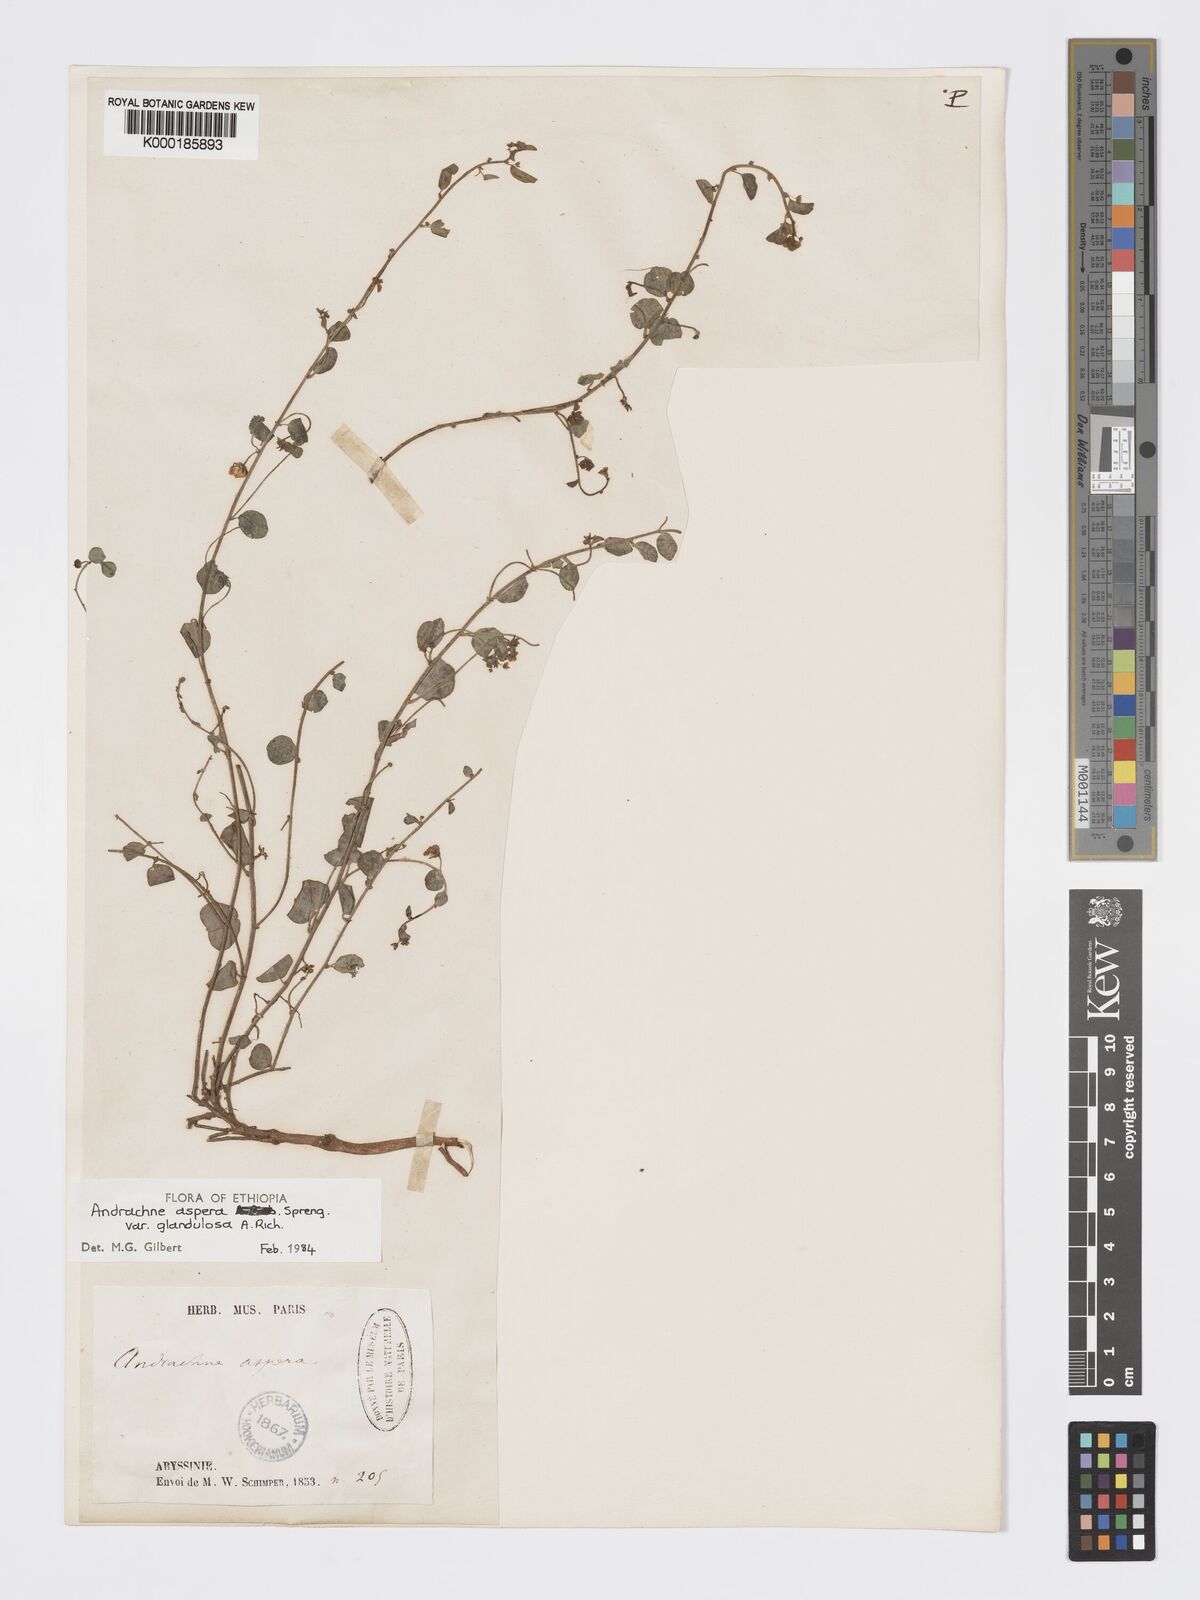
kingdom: Plantae
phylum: Tracheophyta
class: Magnoliopsida
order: Malpighiales
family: Phyllanthaceae
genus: Andrachne
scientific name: Andrachne aspera
